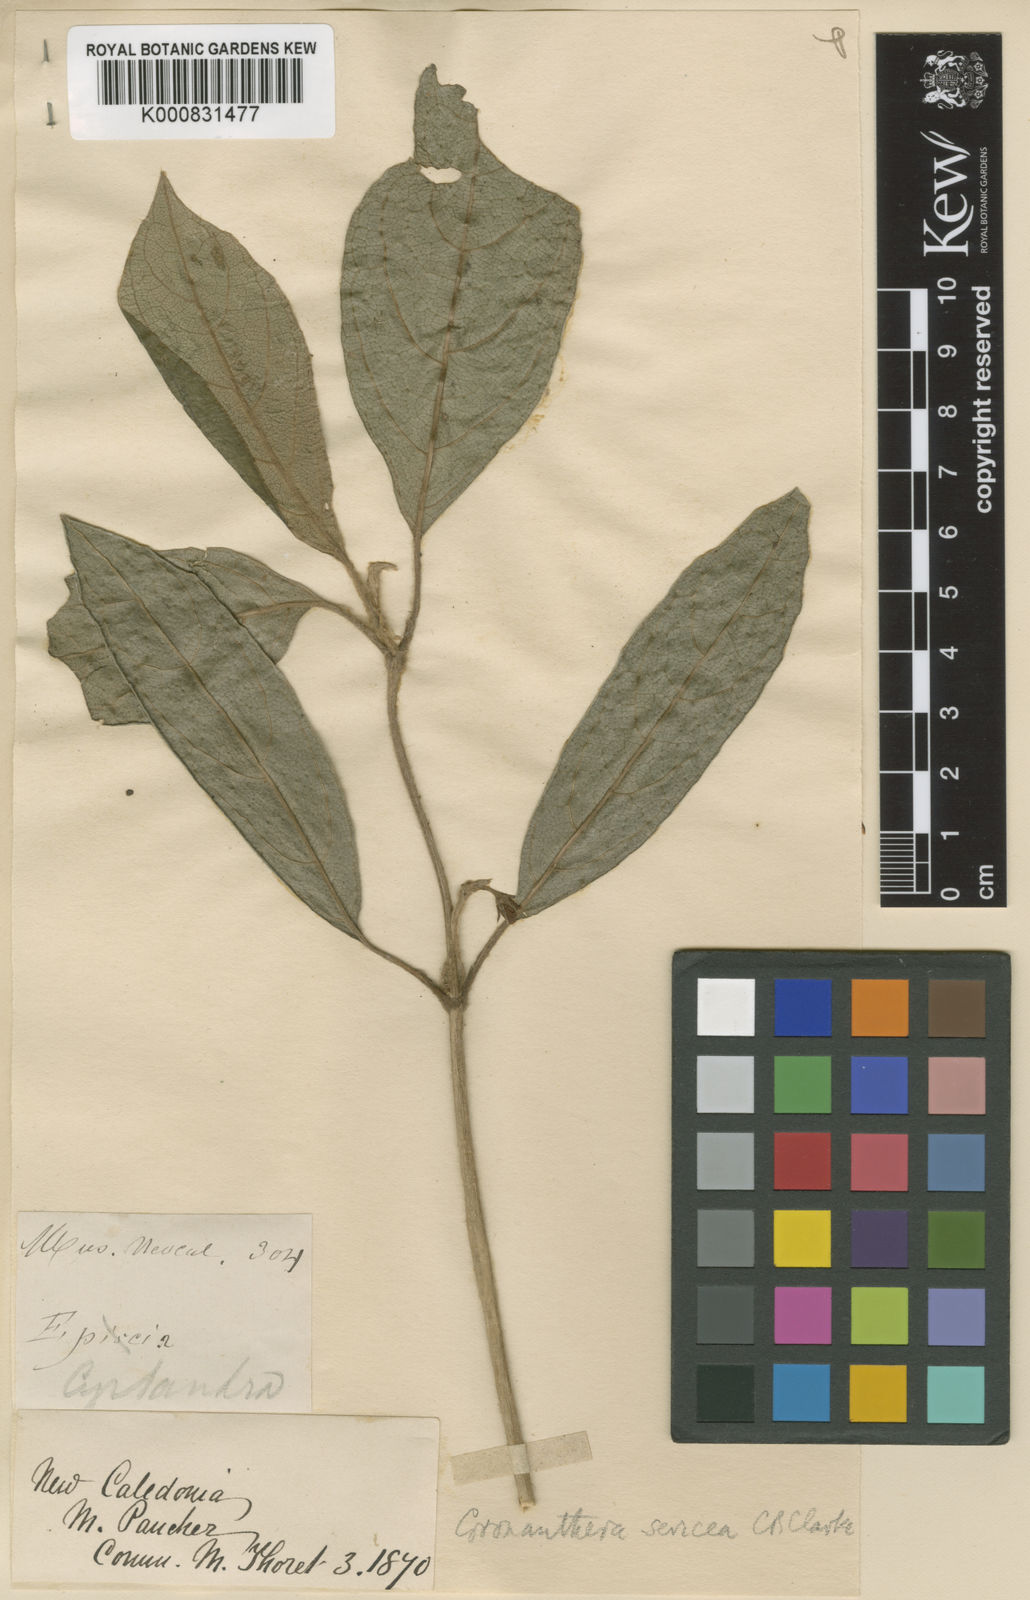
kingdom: Plantae
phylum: Tracheophyta
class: Magnoliopsida
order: Lamiales
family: Gesneriaceae
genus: Coronanthera
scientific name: Coronanthera sericea
